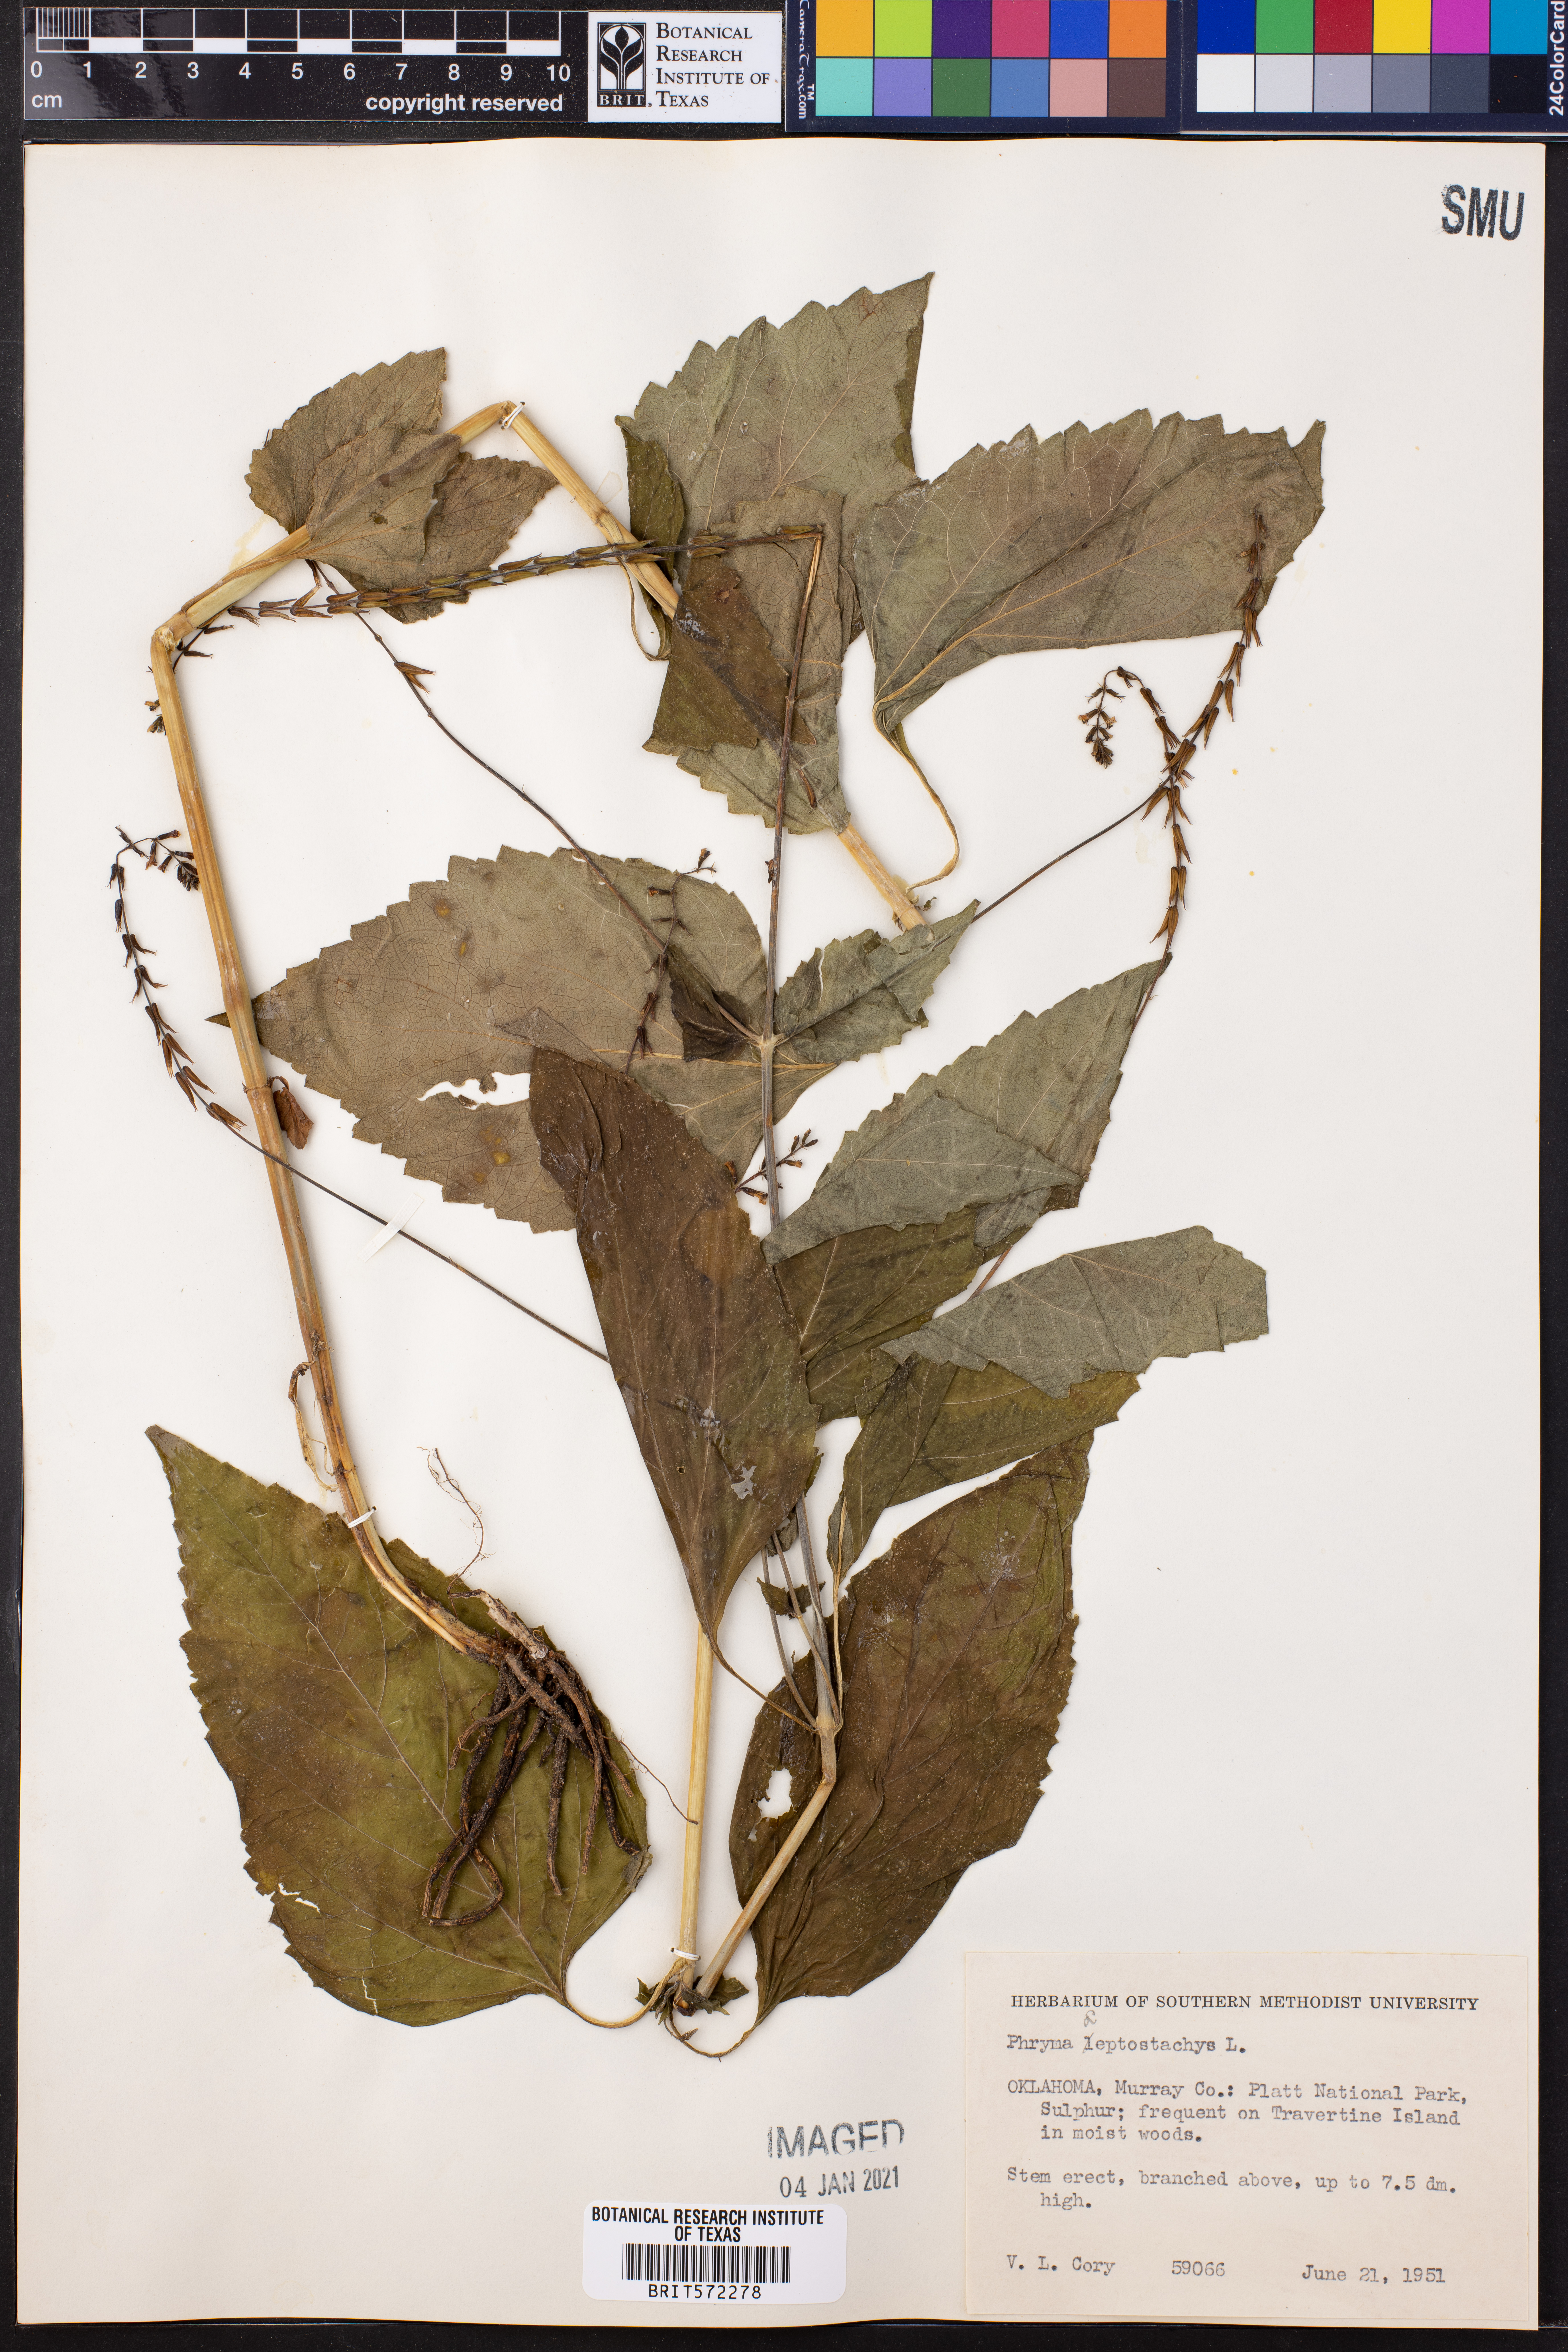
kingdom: Plantae
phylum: Tracheophyta
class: Magnoliopsida
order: Lamiales
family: Phrymaceae
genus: Phryma
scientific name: Phryma leptostachya
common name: American lopseed
